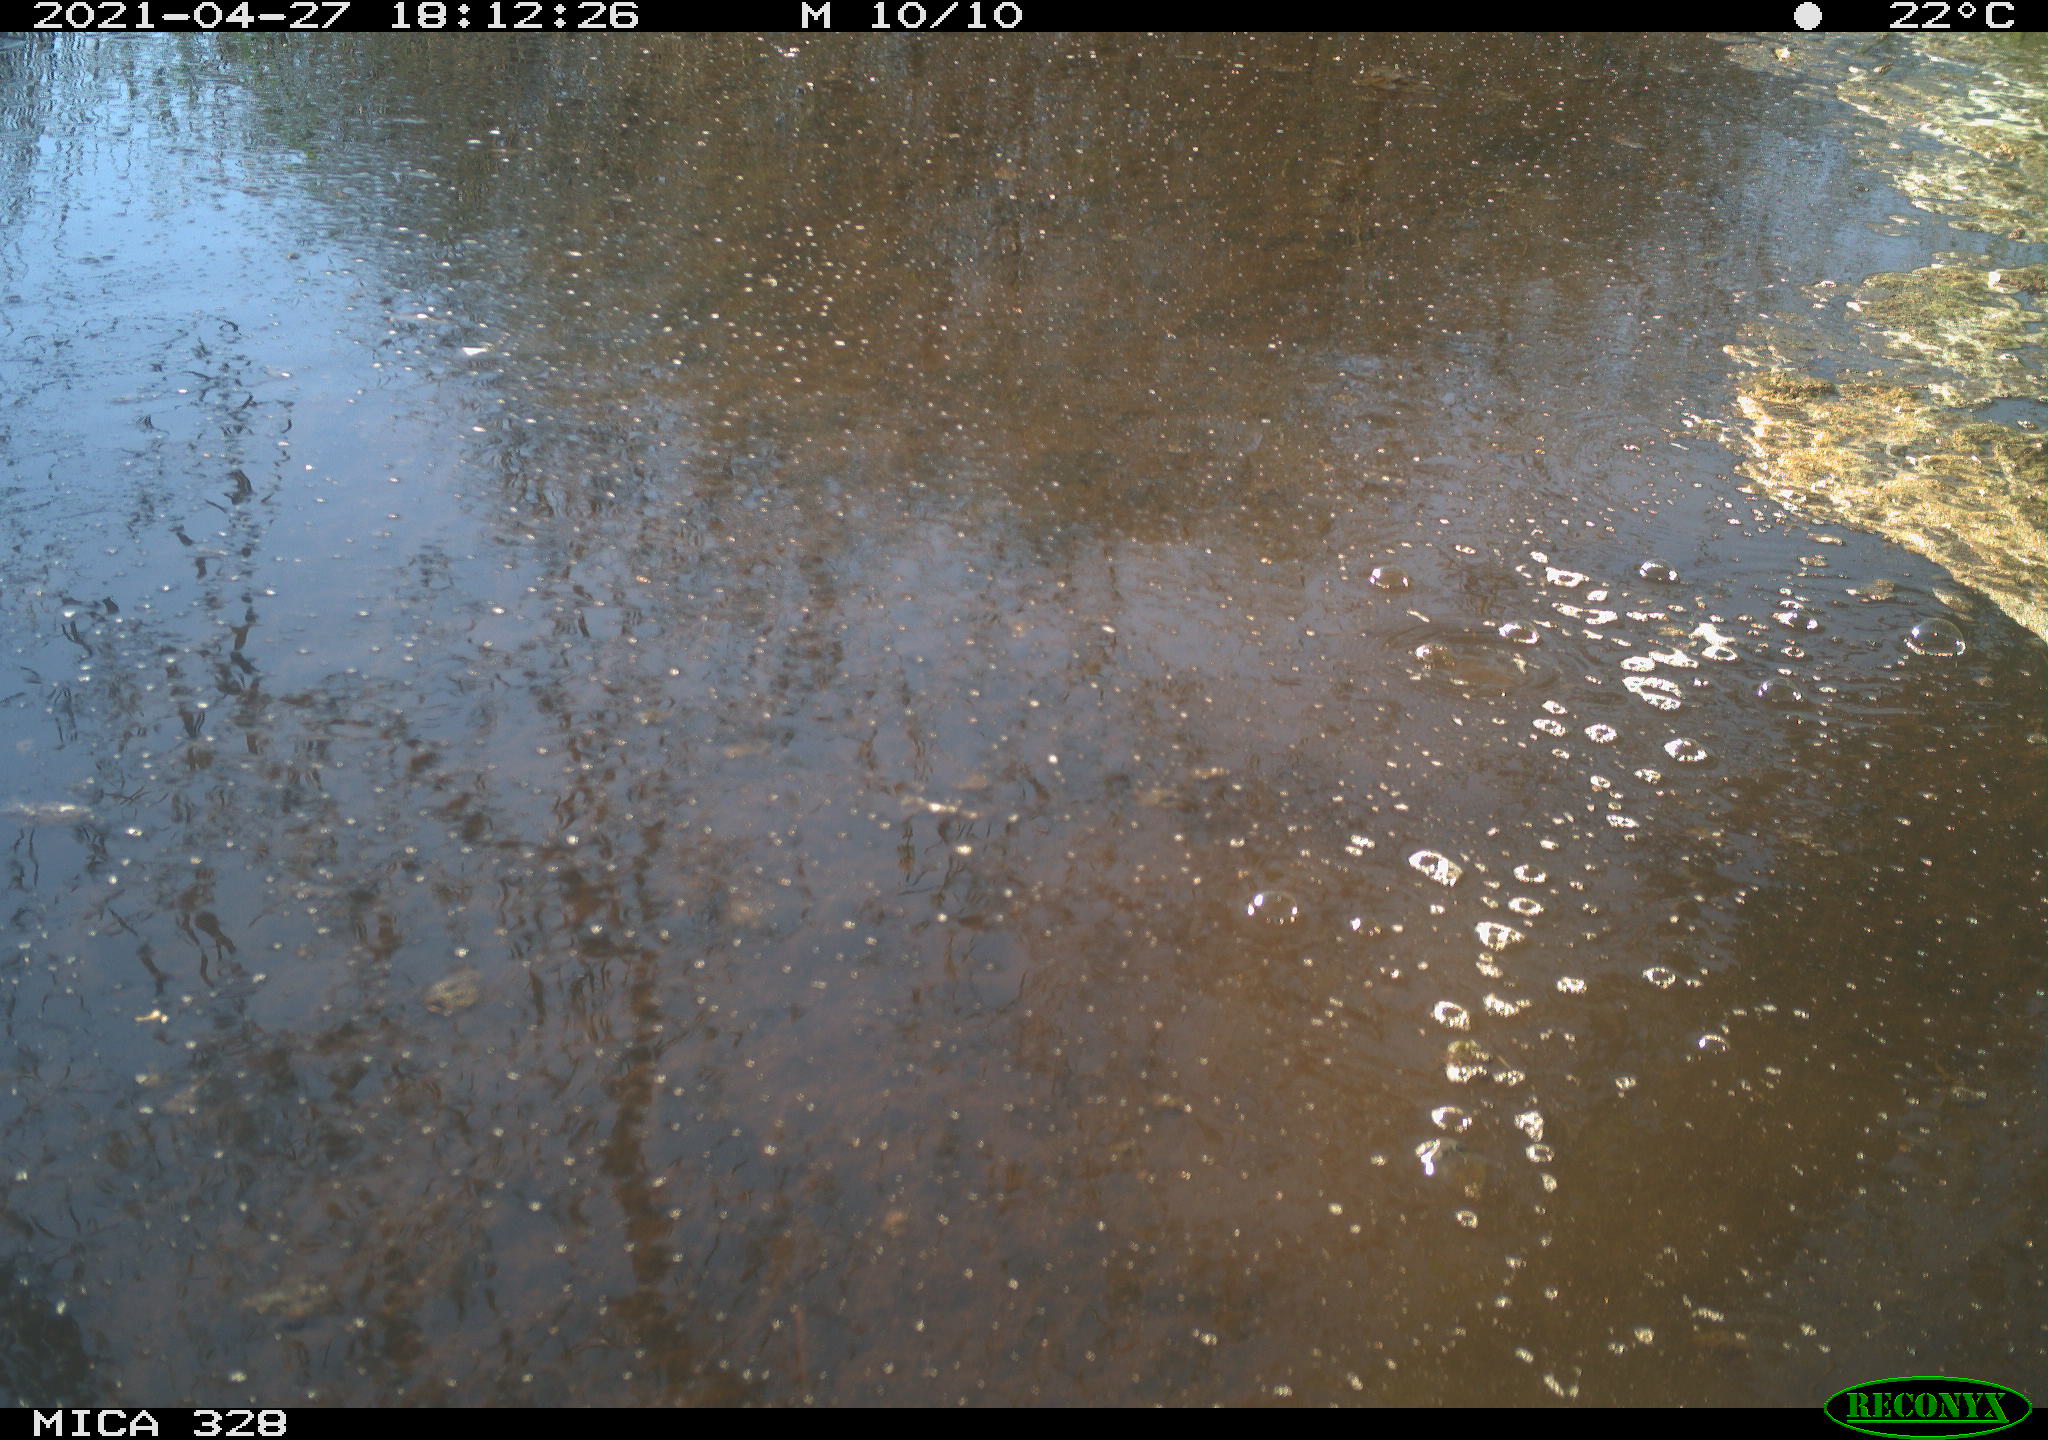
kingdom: Animalia
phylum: Chordata
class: Aves
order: Pelecaniformes
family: Ardeidae
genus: Ardea
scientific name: Ardea alba
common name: Great egret
